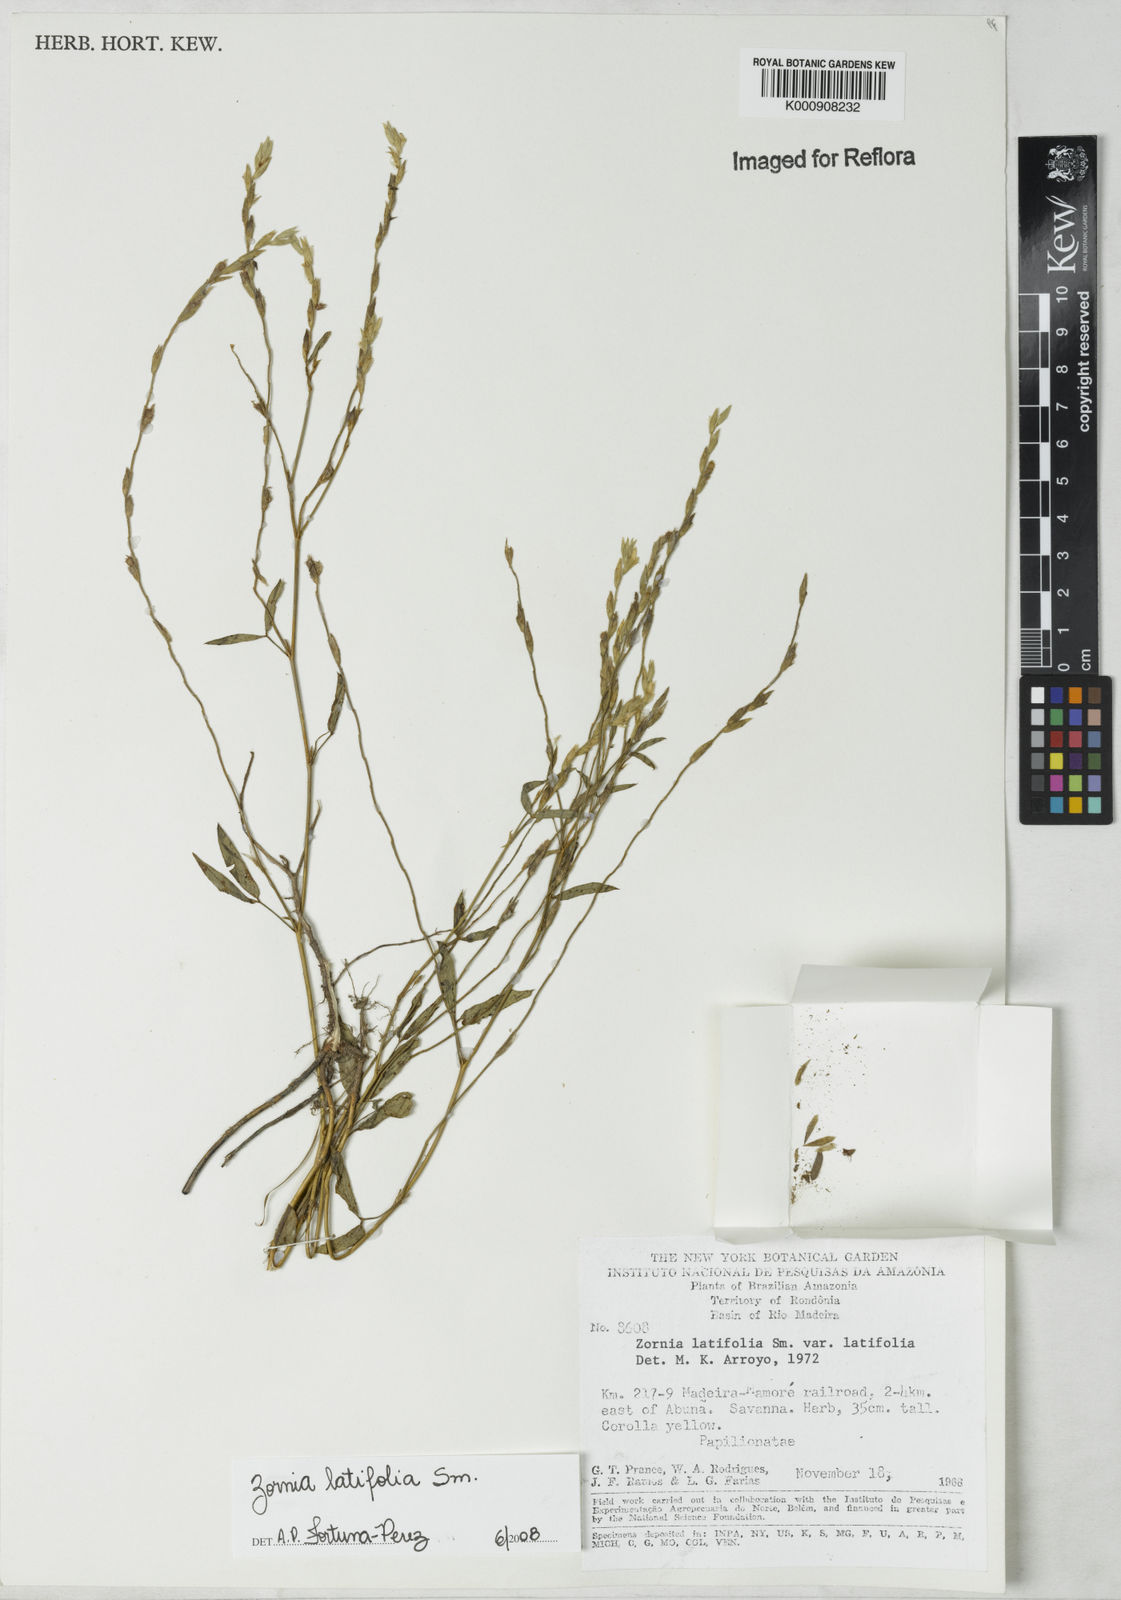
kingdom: Plantae
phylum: Tracheophyta
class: Magnoliopsida
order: Fabales
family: Fabaceae
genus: Zornia
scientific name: Zornia latifolia
